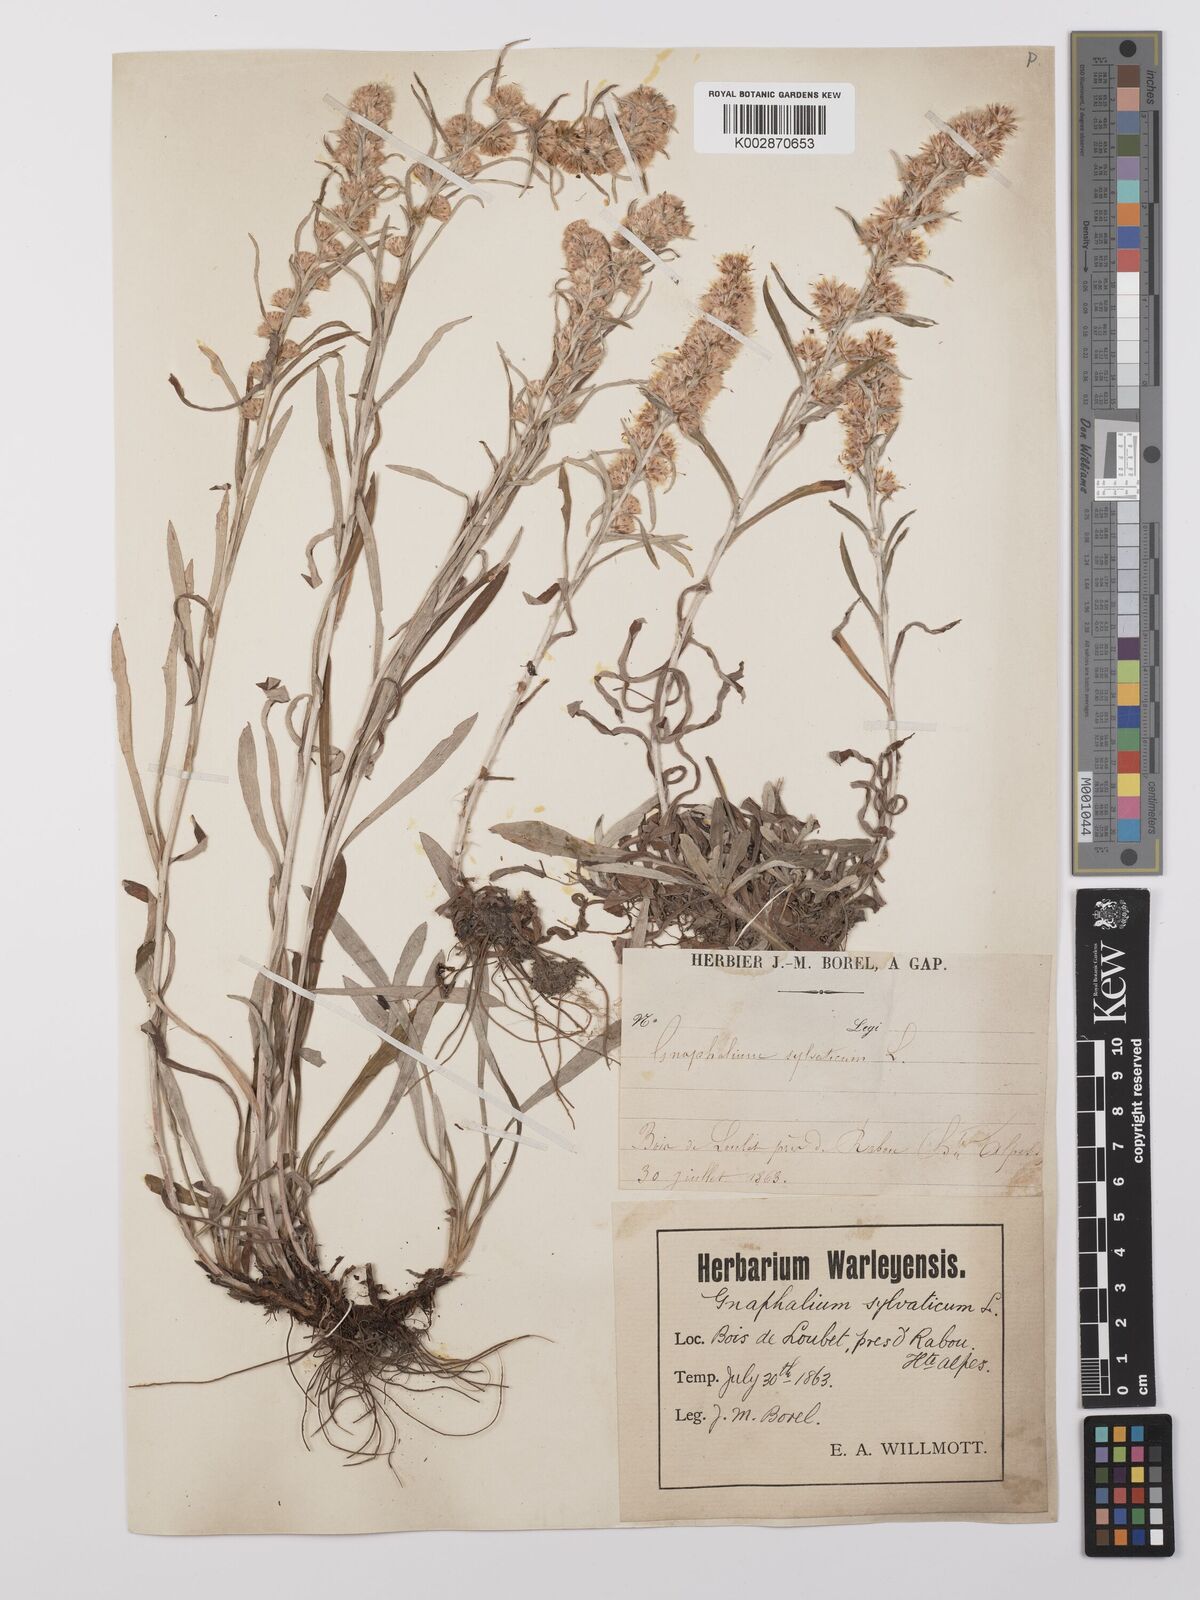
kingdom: Plantae
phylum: Tracheophyta
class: Magnoliopsida
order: Asterales
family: Asteraceae
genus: Omalotheca
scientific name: Omalotheca sylvatica
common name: Heath cudweed
